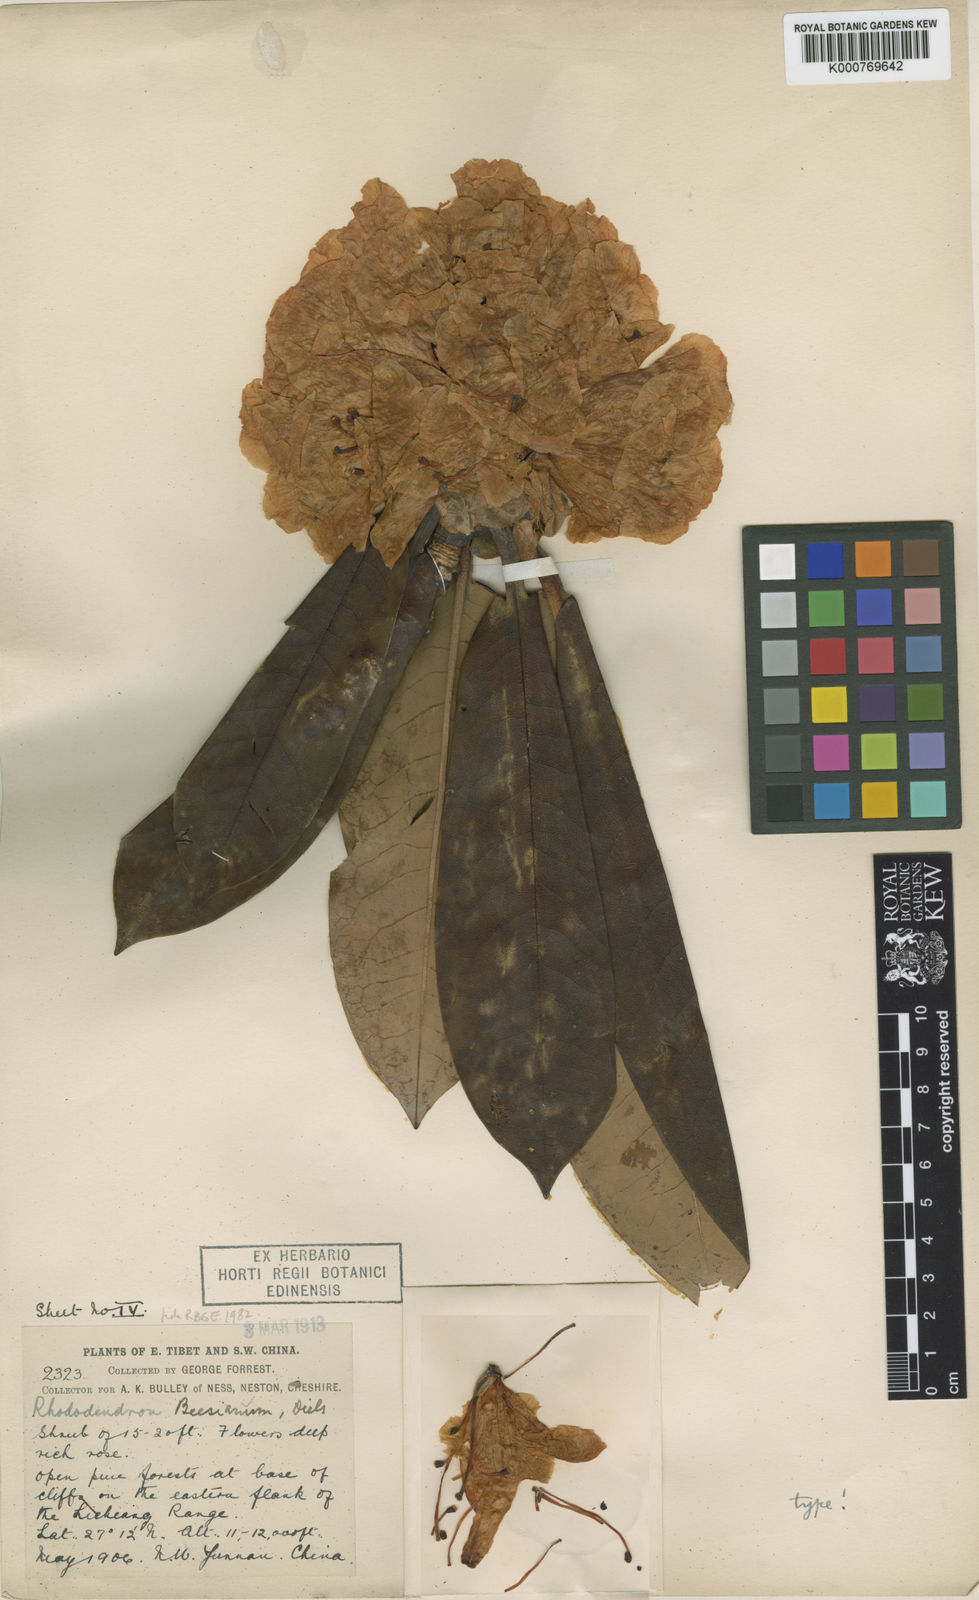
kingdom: Plantae
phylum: Tracheophyta
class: Magnoliopsida
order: Ericales
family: Ericaceae
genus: Rhododendron
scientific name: Rhododendron beesianum
